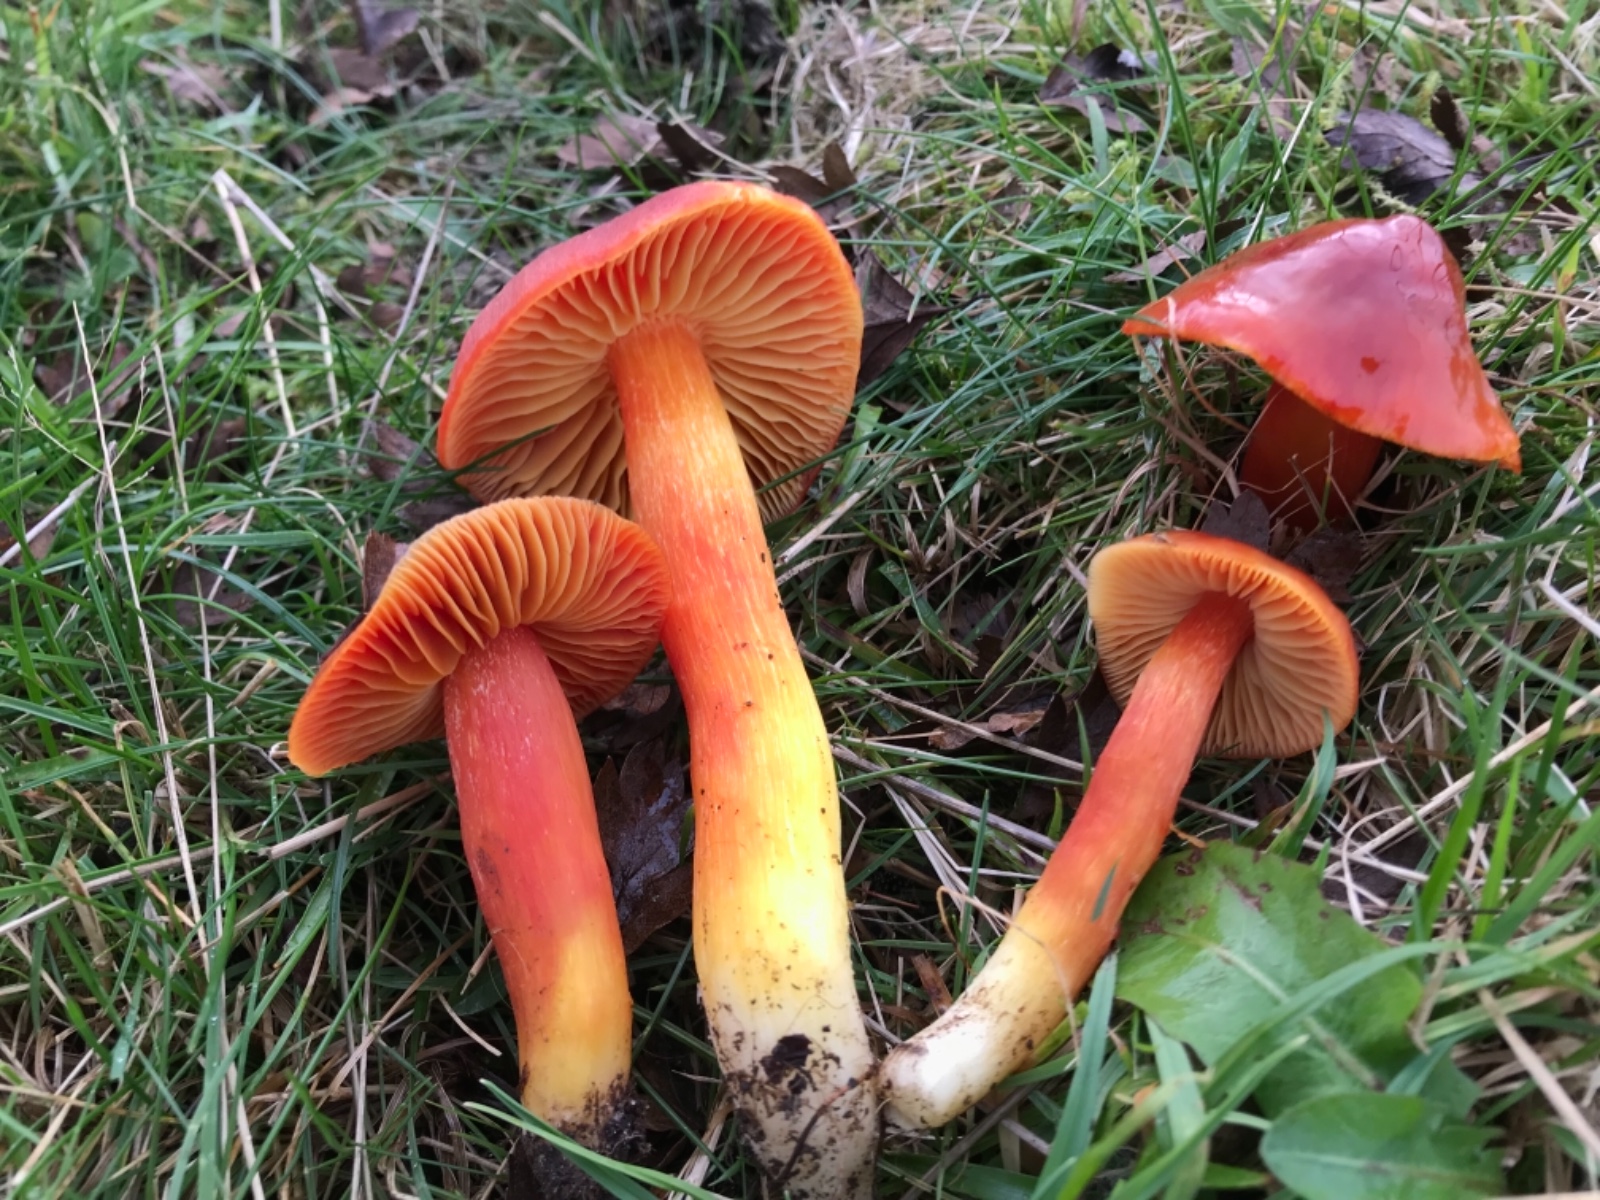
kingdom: Fungi
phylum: Basidiomycota
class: Agaricomycetes
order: Agaricales
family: Hygrophoraceae
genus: Hygrocybe
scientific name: Hygrocybe punicea
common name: skarlagen-vokshat
